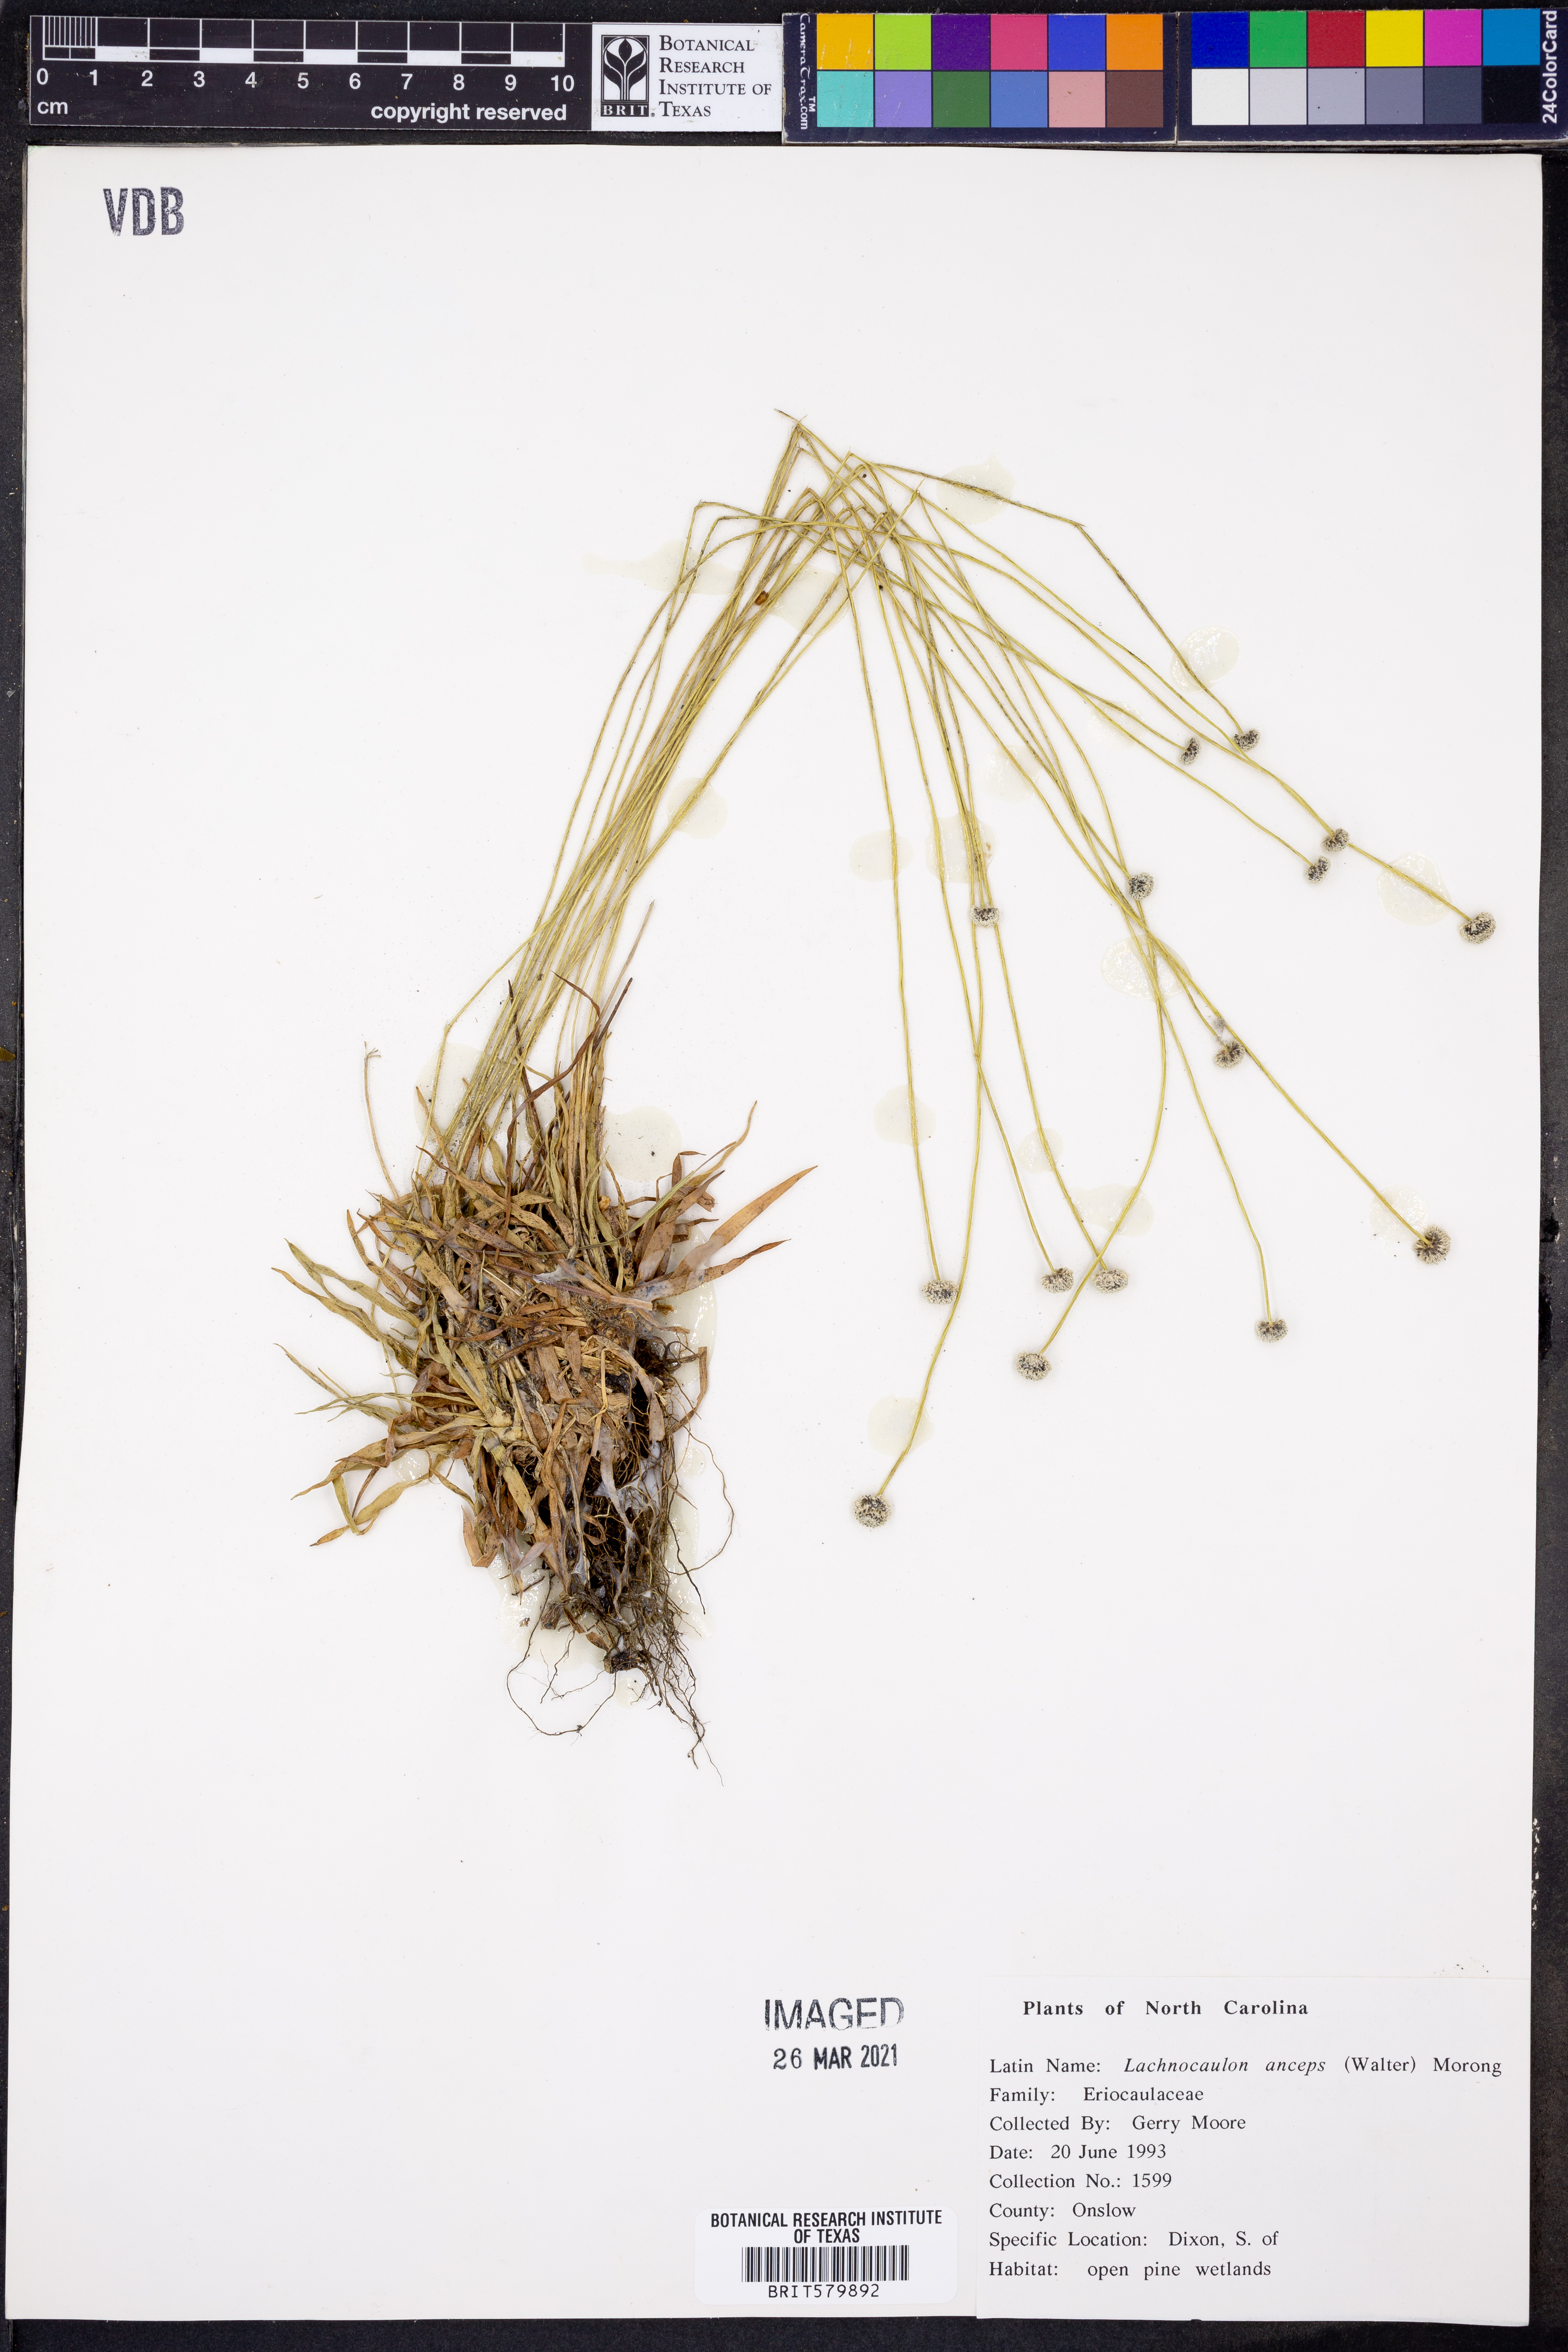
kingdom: Plantae
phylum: Tracheophyta
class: Liliopsida
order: Poales
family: Eriocaulaceae
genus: Paepalanthus
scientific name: Paepalanthus anceps
